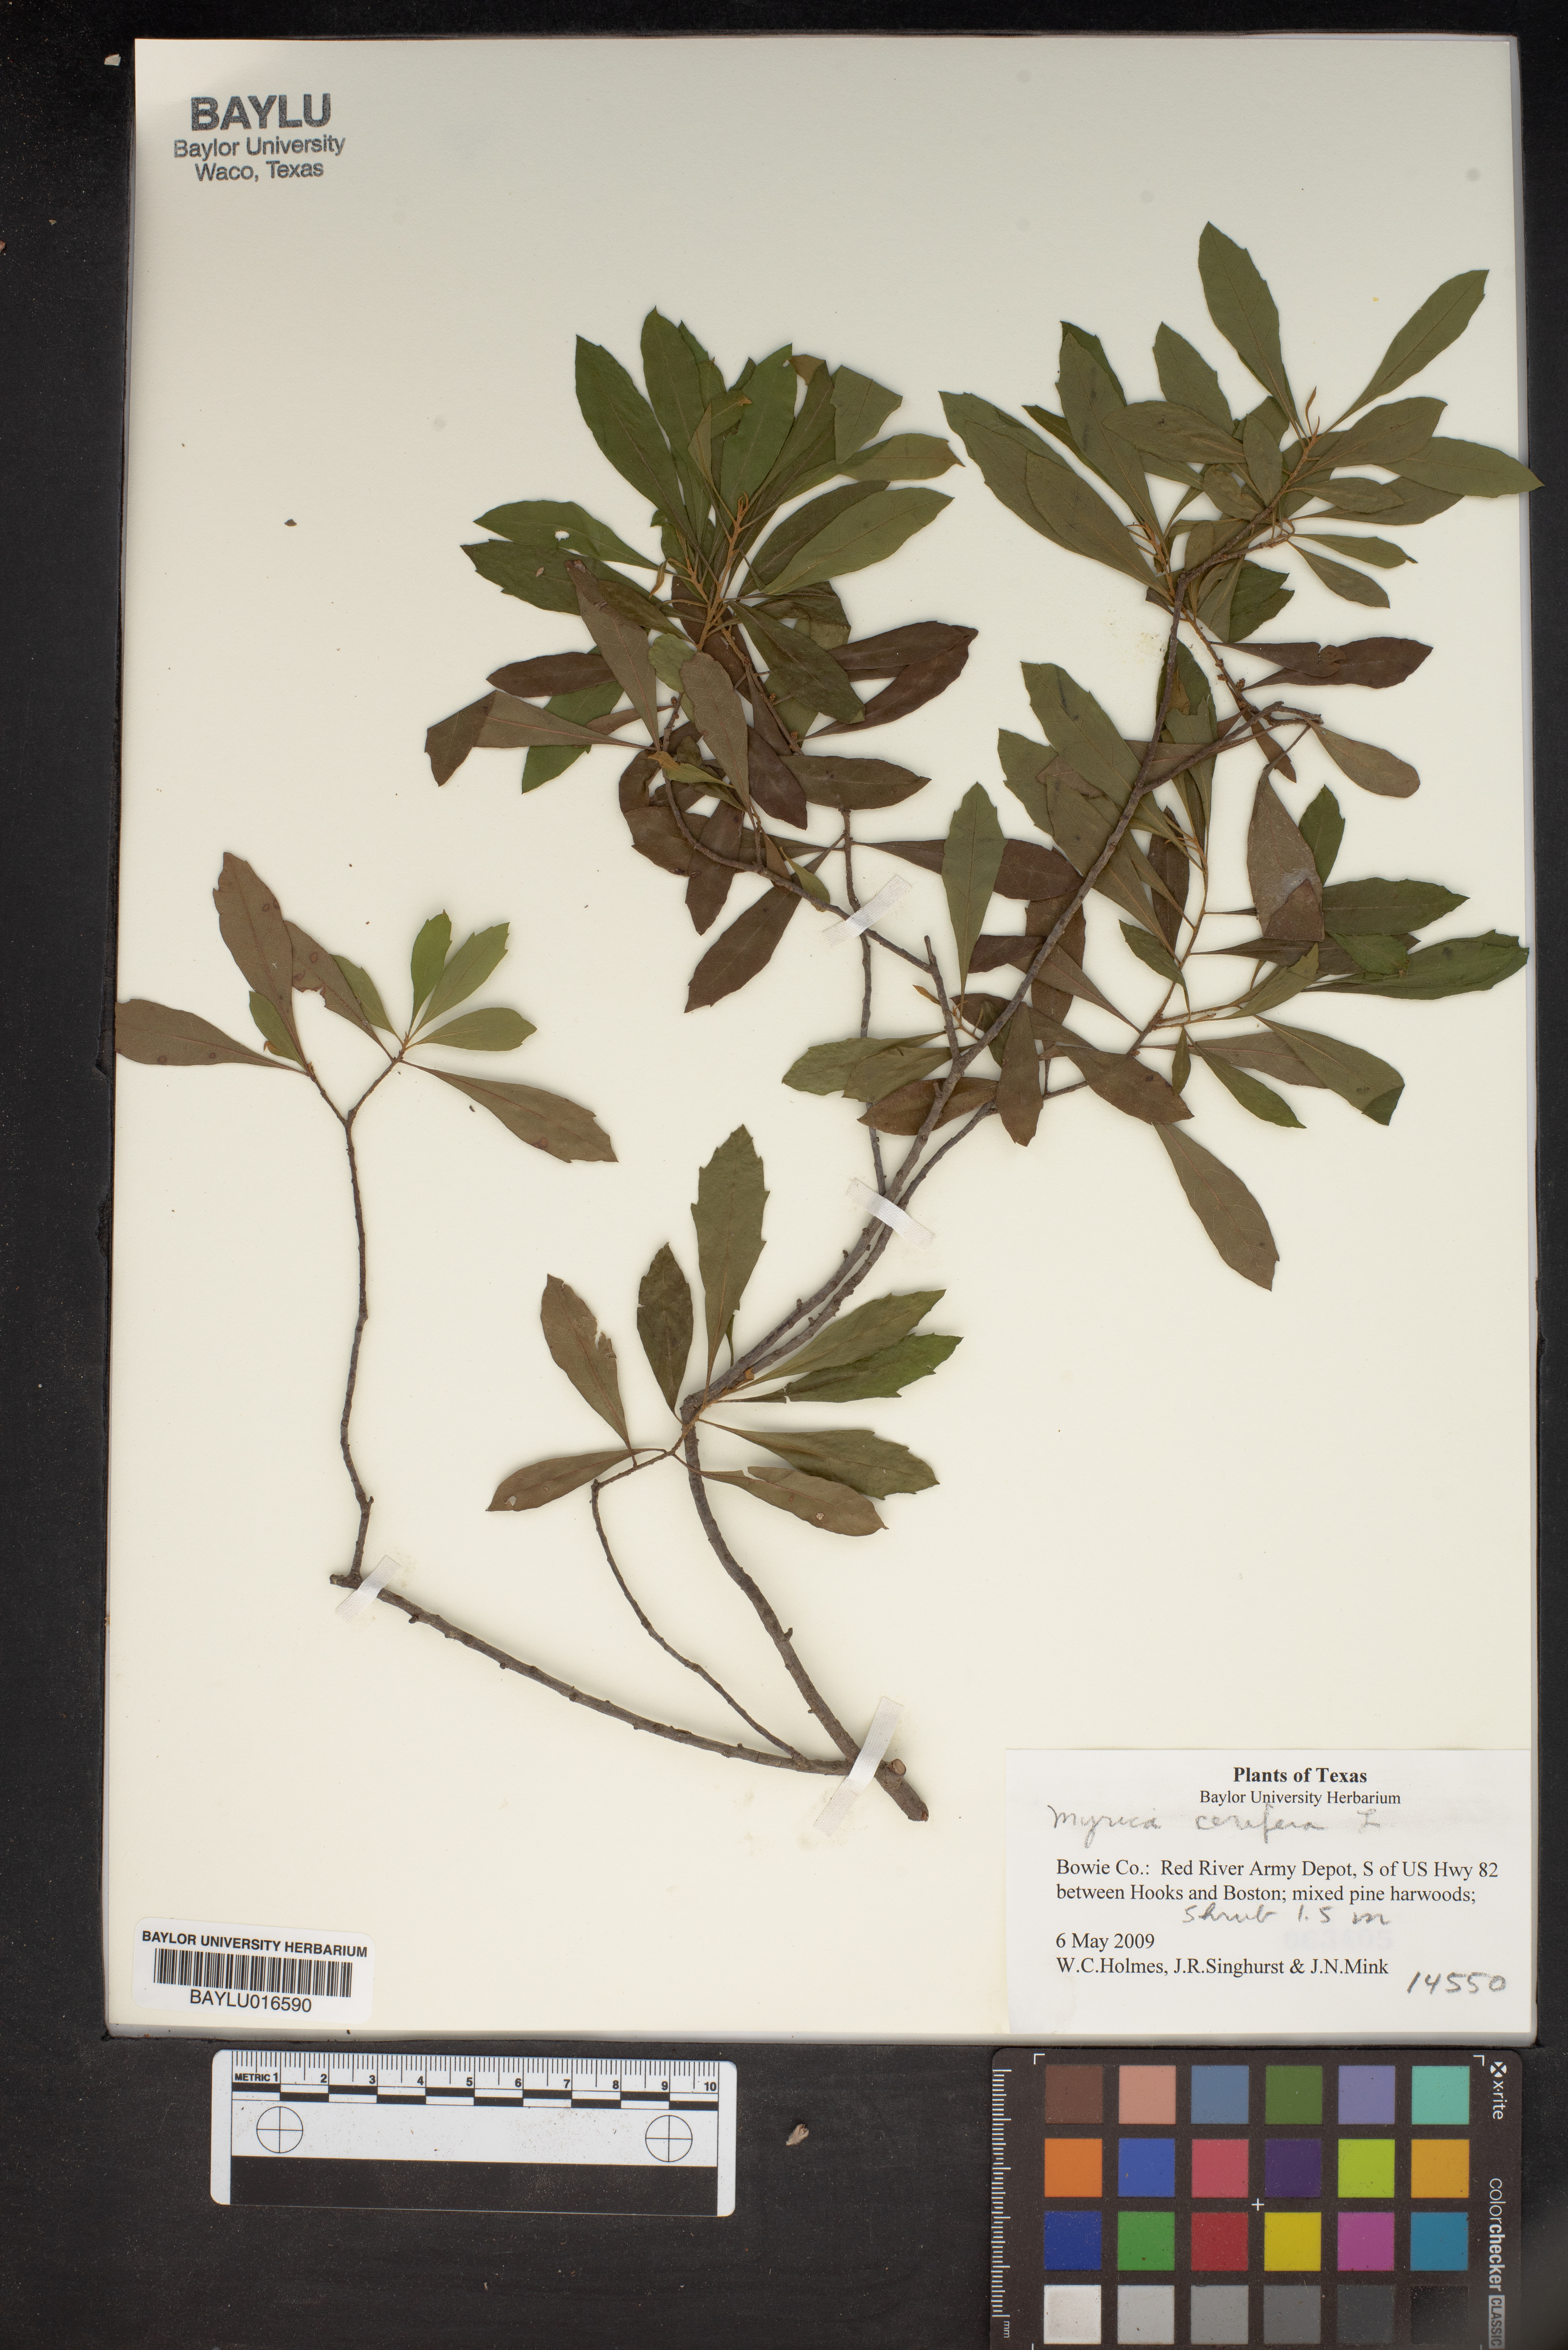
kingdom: Plantae
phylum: Tracheophyta
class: Magnoliopsida
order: Fagales
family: Myricaceae
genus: Morella
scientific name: Morella cerifera
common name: Wax myrtle
